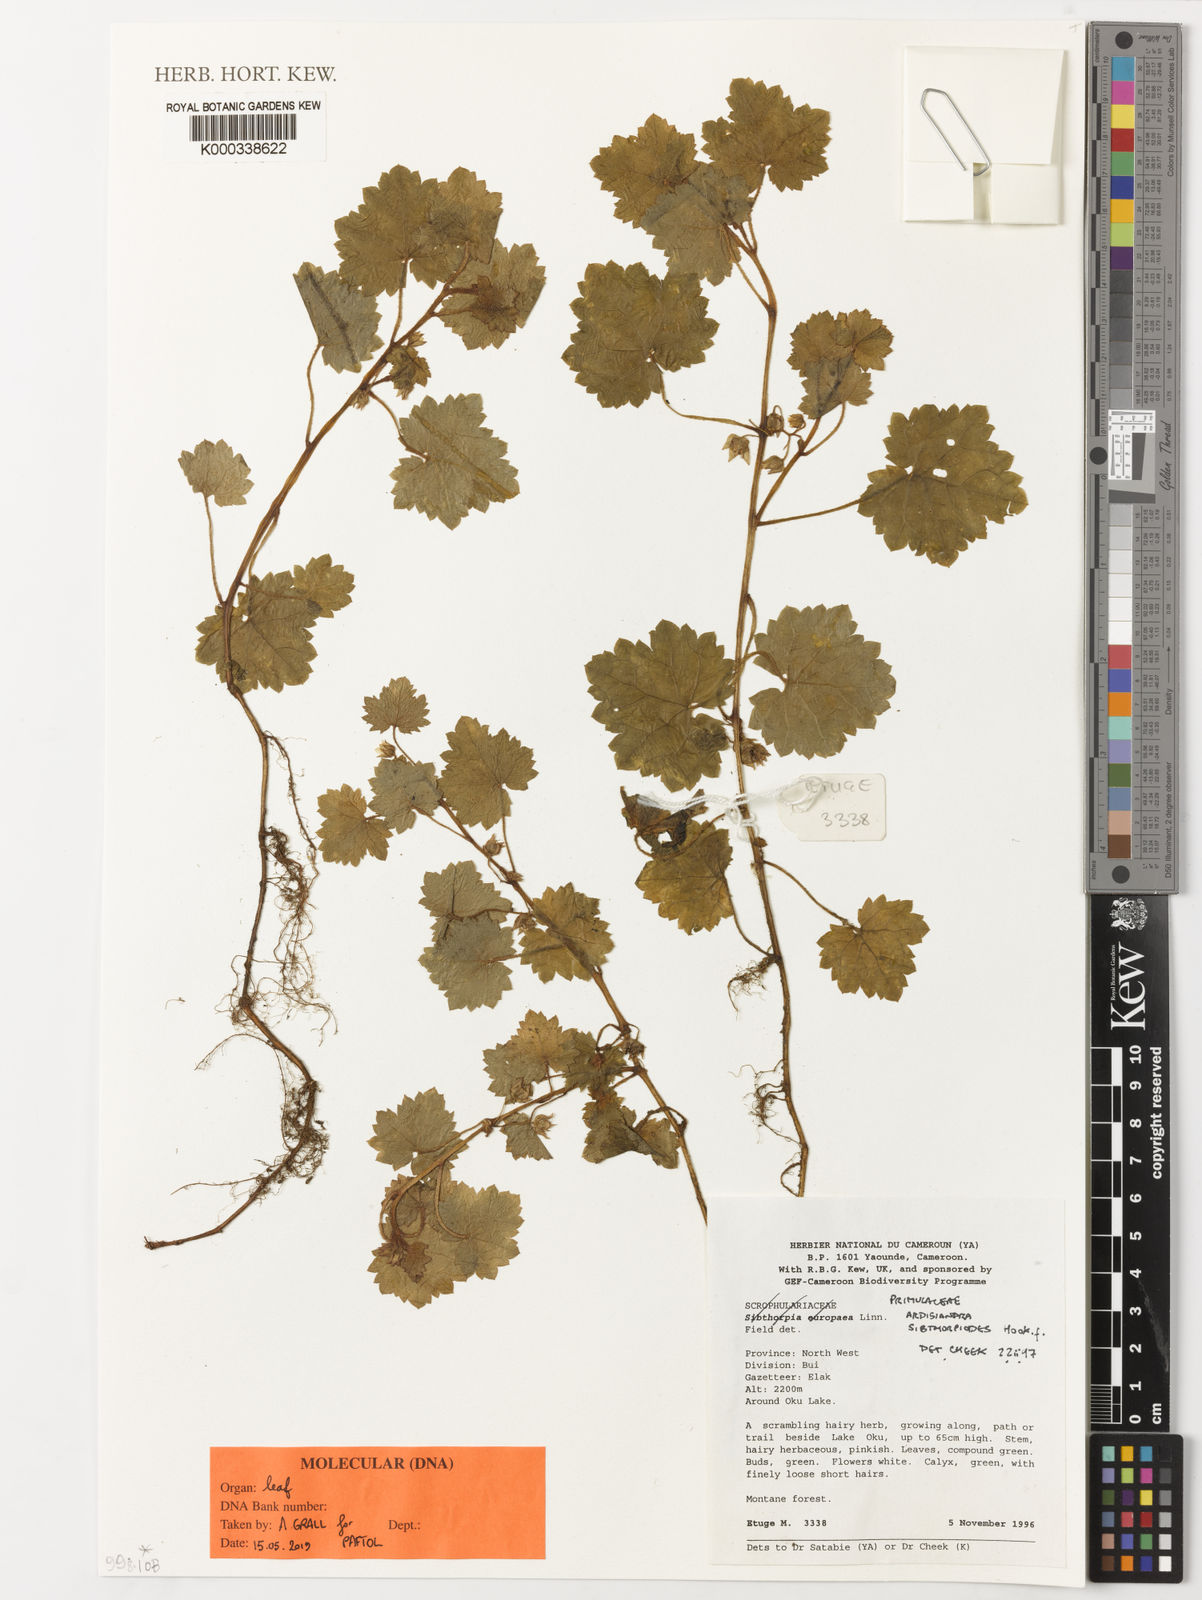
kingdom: Plantae
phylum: Tracheophyta
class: Magnoliopsida
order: Ericales
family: Primulaceae
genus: Ardisiandra
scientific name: Ardisiandra sibthorpioides
